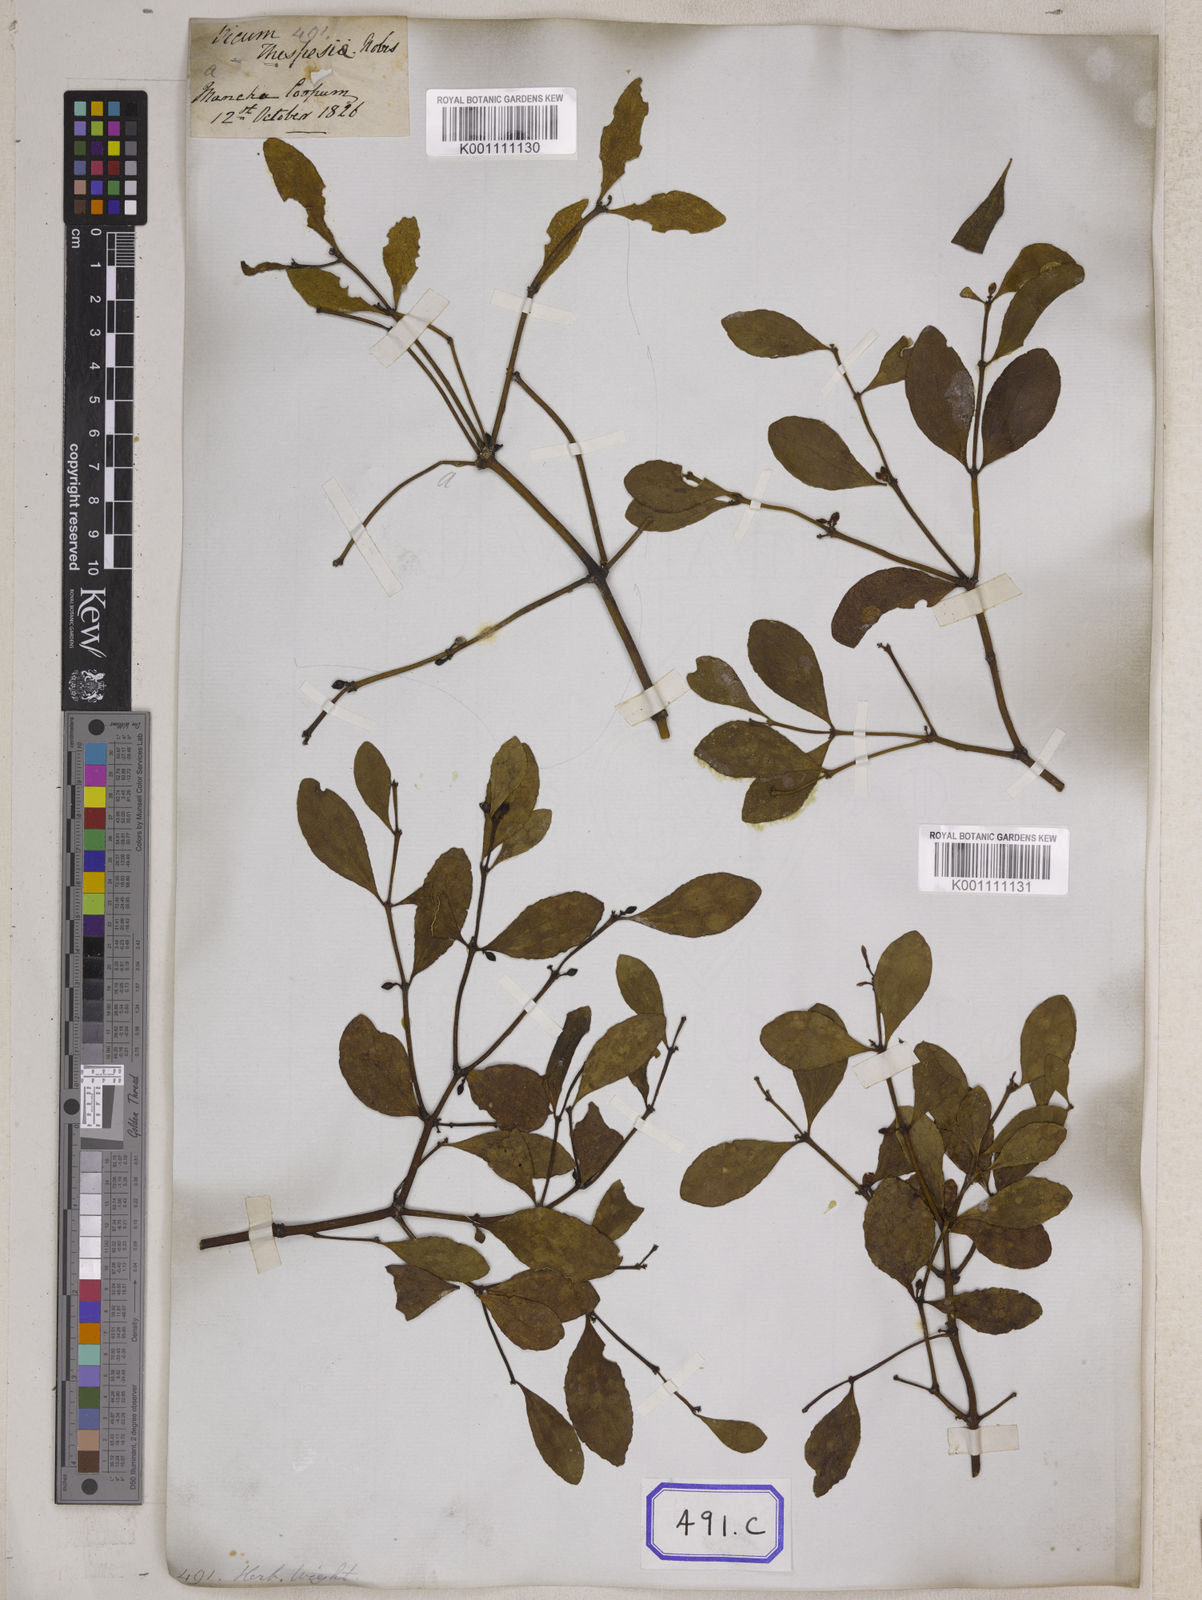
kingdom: Plantae
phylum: Tracheophyta
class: Magnoliopsida
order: Santalales
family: Viscaceae
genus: Viscum
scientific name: Viscum
